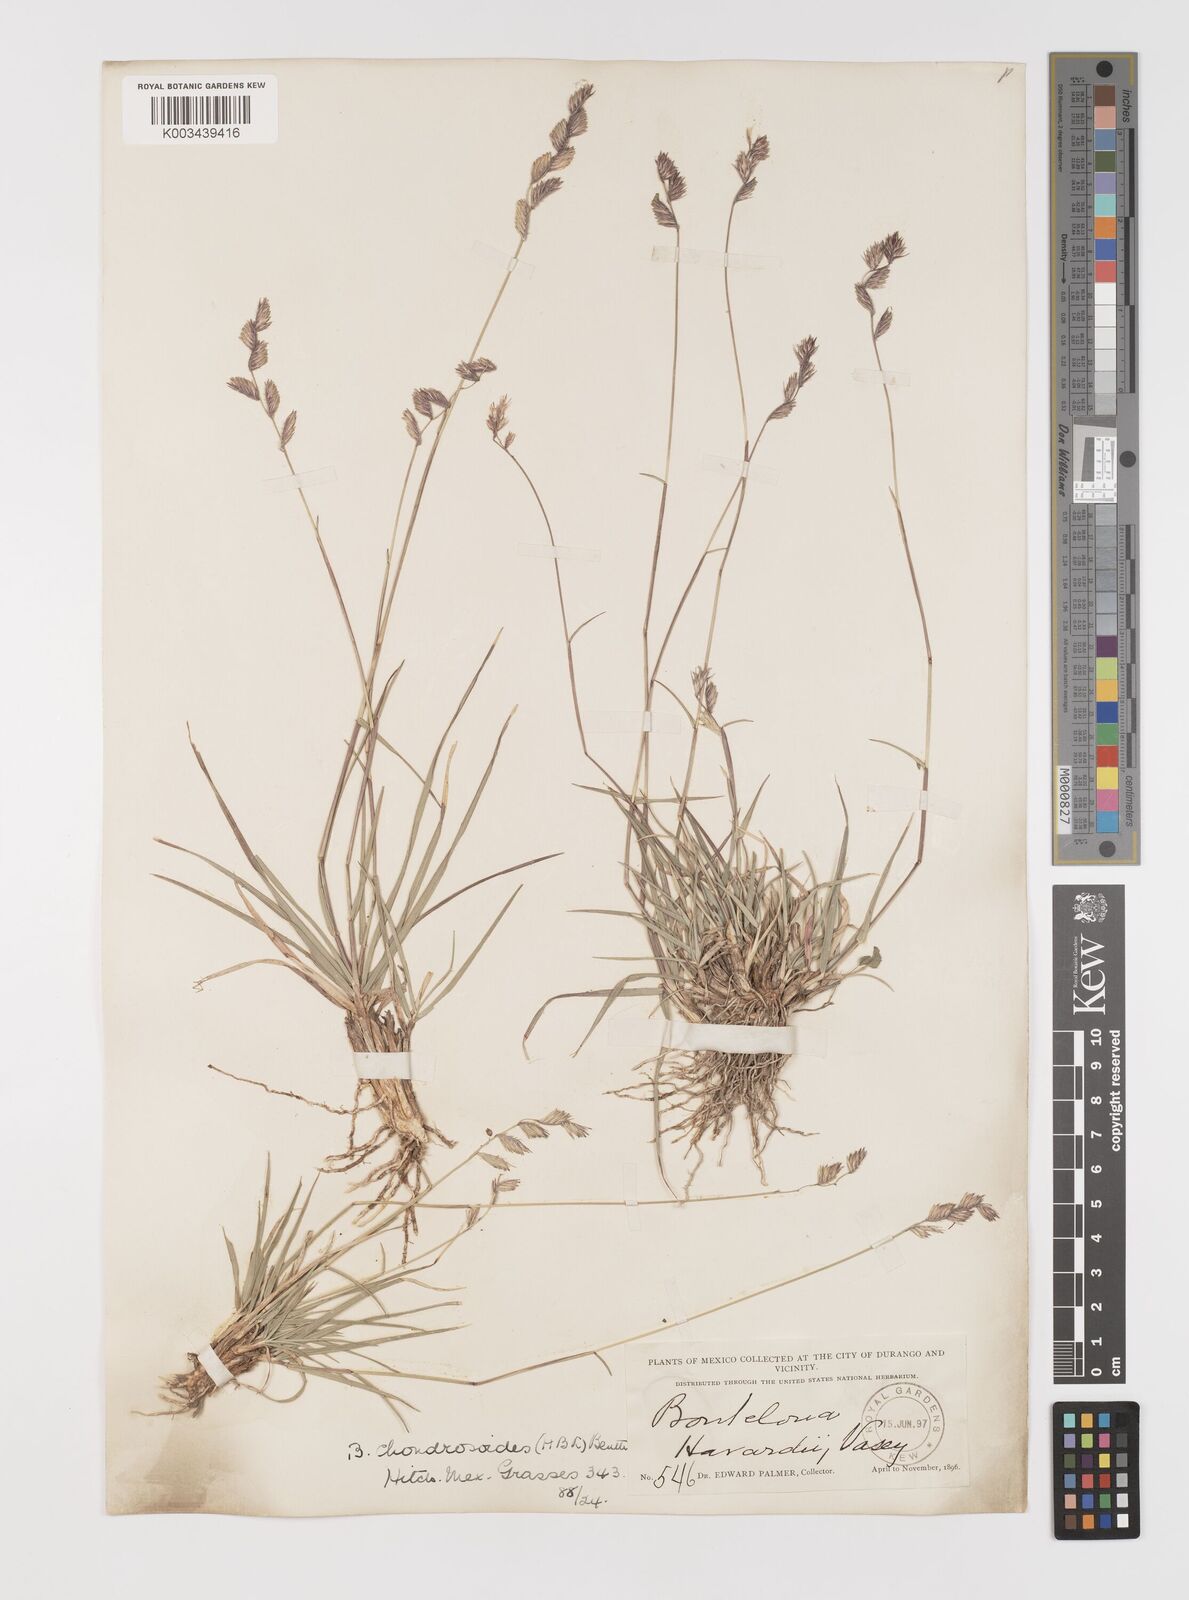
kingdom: Plantae
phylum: Tracheophyta
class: Liliopsida
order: Poales
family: Poaceae
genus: Bouteloua
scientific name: Bouteloua chondrosioides
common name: Sprucetop grama
